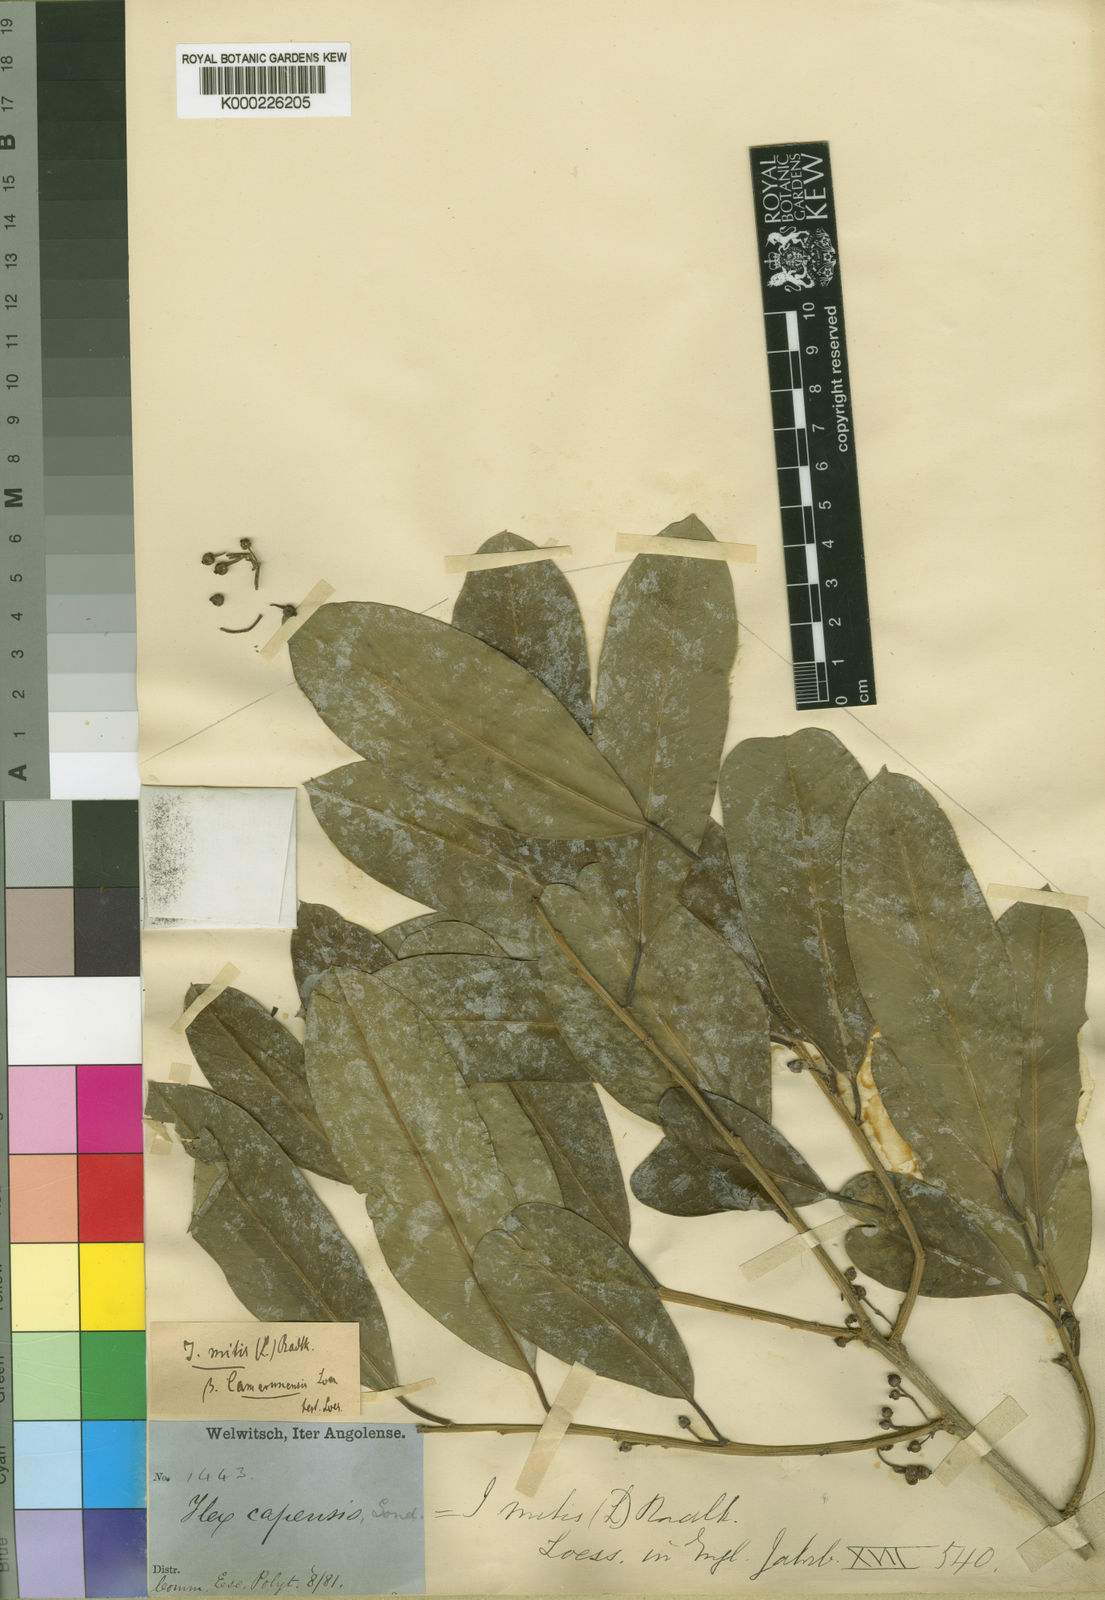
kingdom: Plantae
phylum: Tracheophyta
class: Magnoliopsida
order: Aquifoliales
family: Aquifoliaceae
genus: Ilex
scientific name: Ilex mitis
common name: African holly
